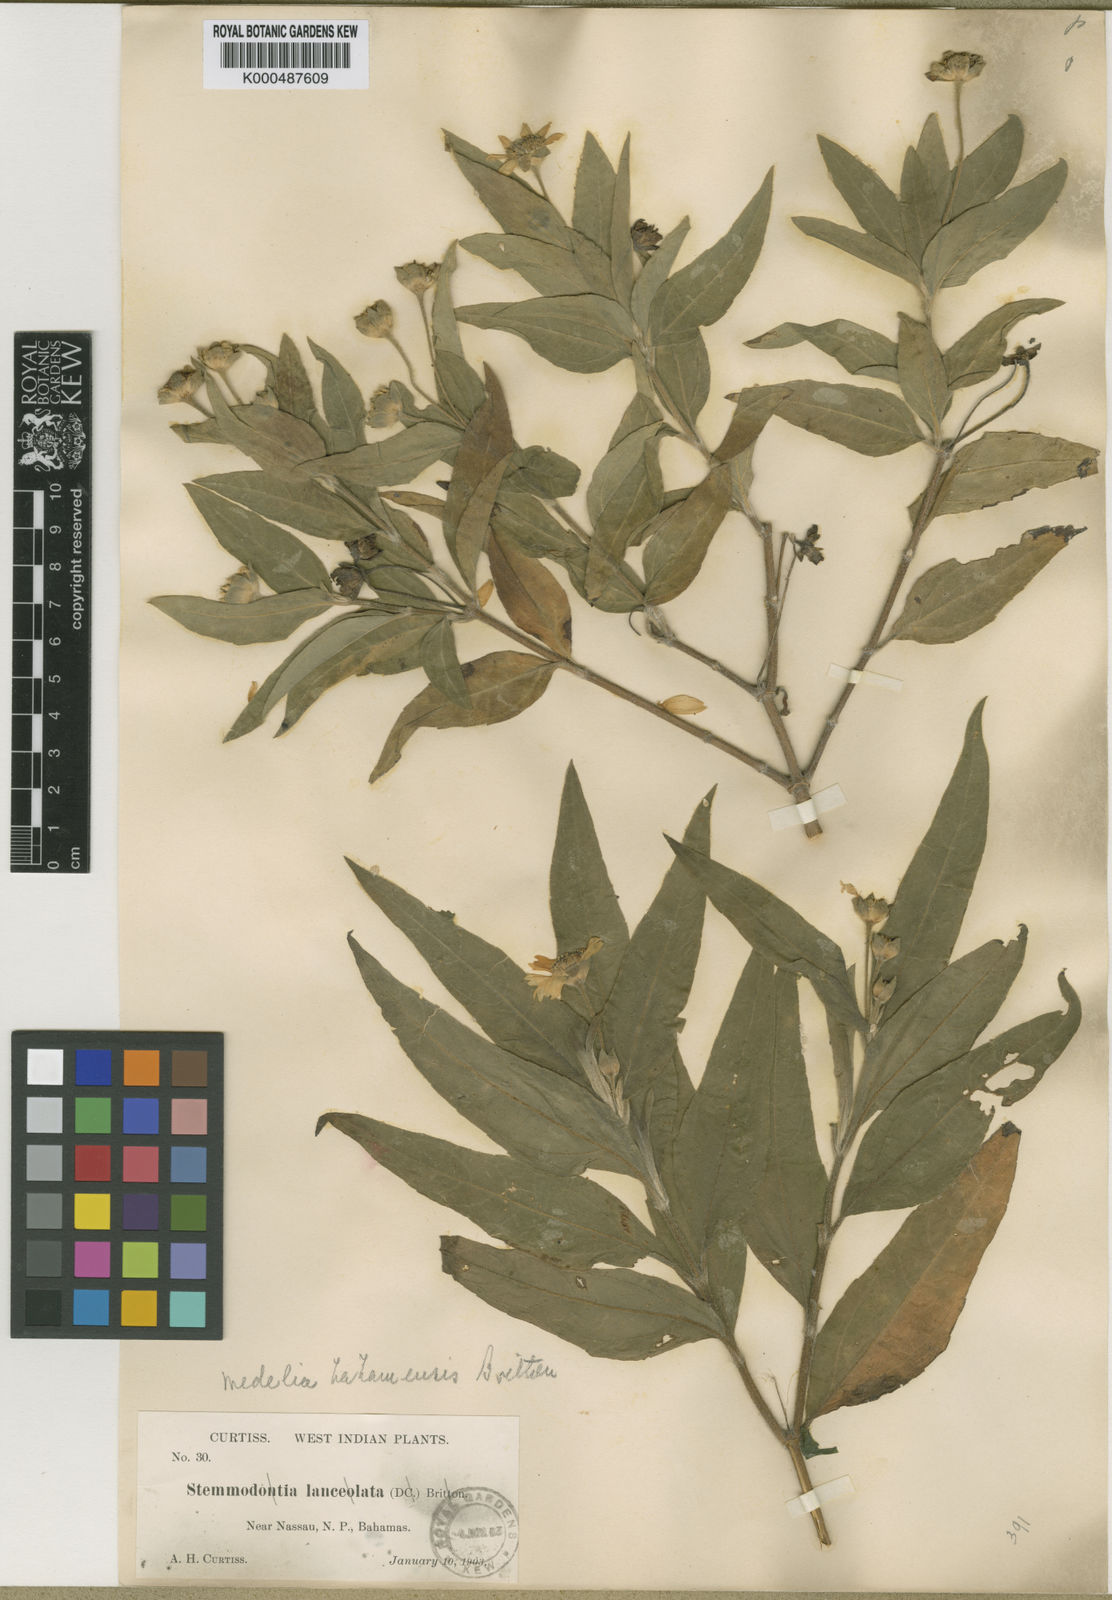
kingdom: Plantae
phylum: Tracheophyta
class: Magnoliopsida
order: Asterales
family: Asteraceae
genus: Wedelia
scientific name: Wedelia
